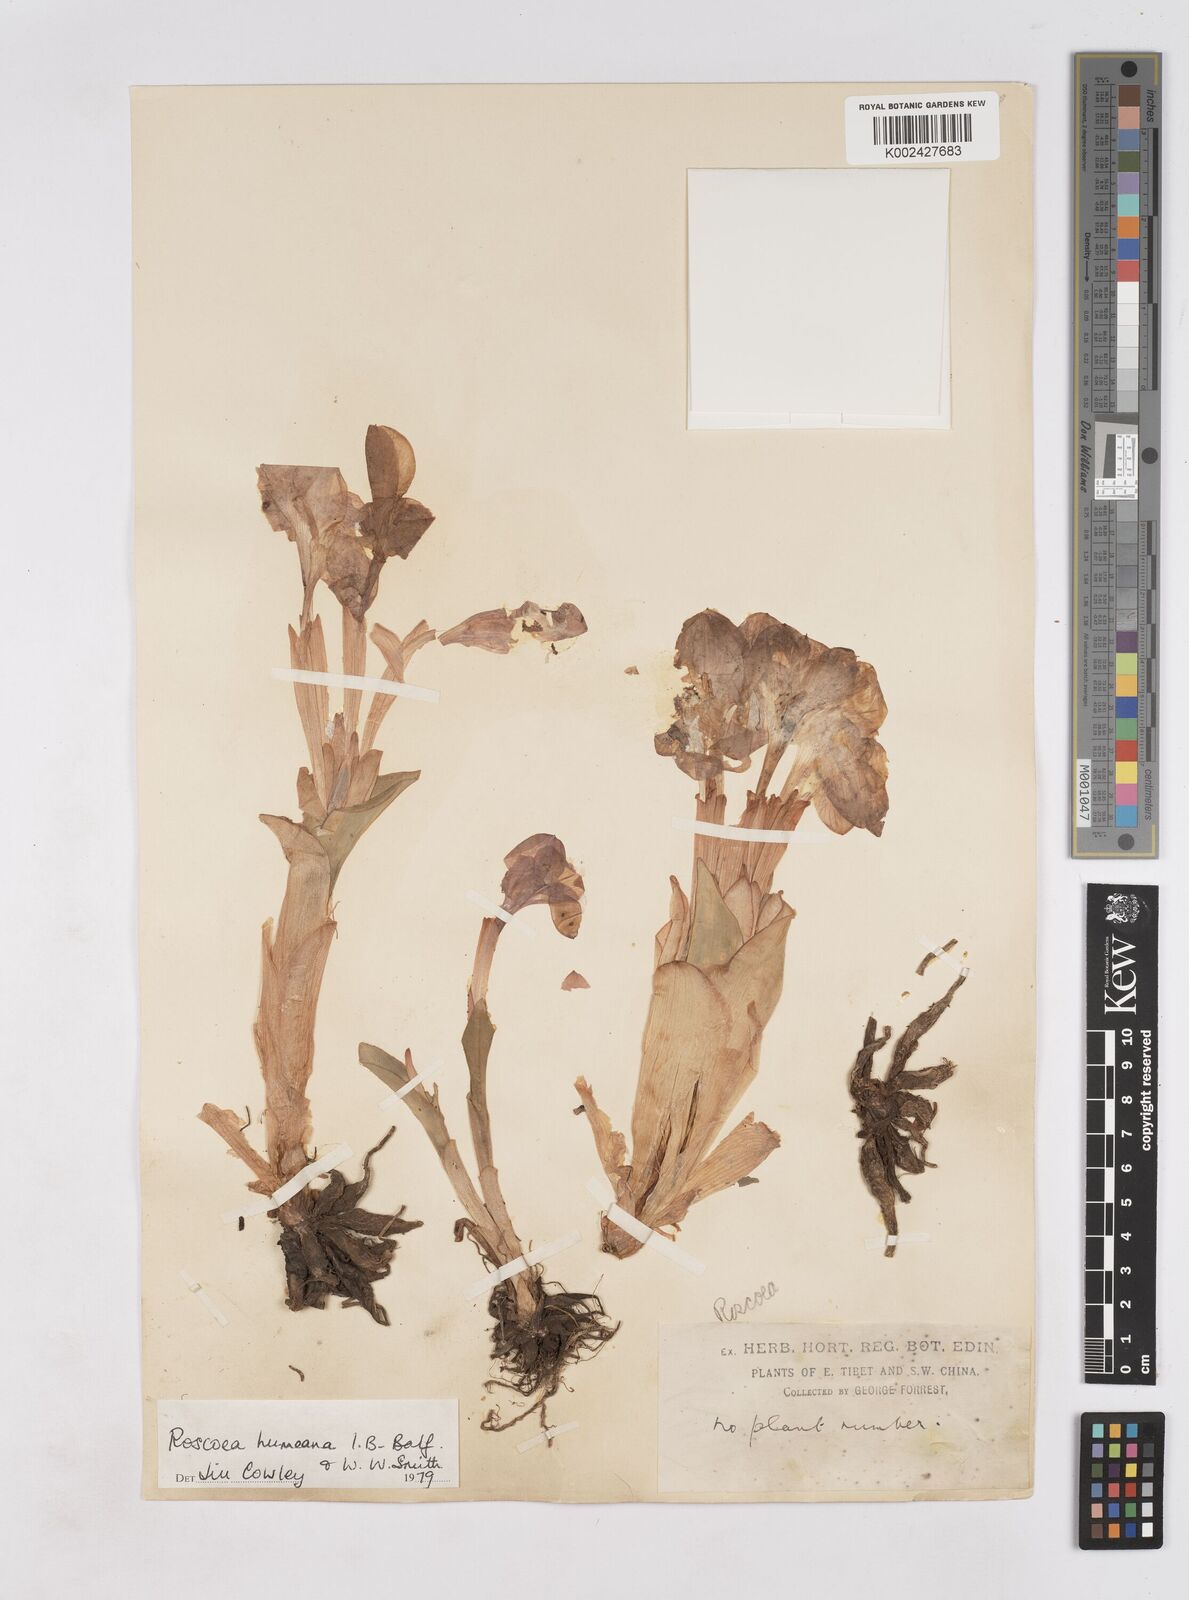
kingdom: Plantae
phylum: Tracheophyta
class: Liliopsida
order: Zingiberales
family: Zingiberaceae
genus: Roscoea
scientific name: Roscoea humeana
